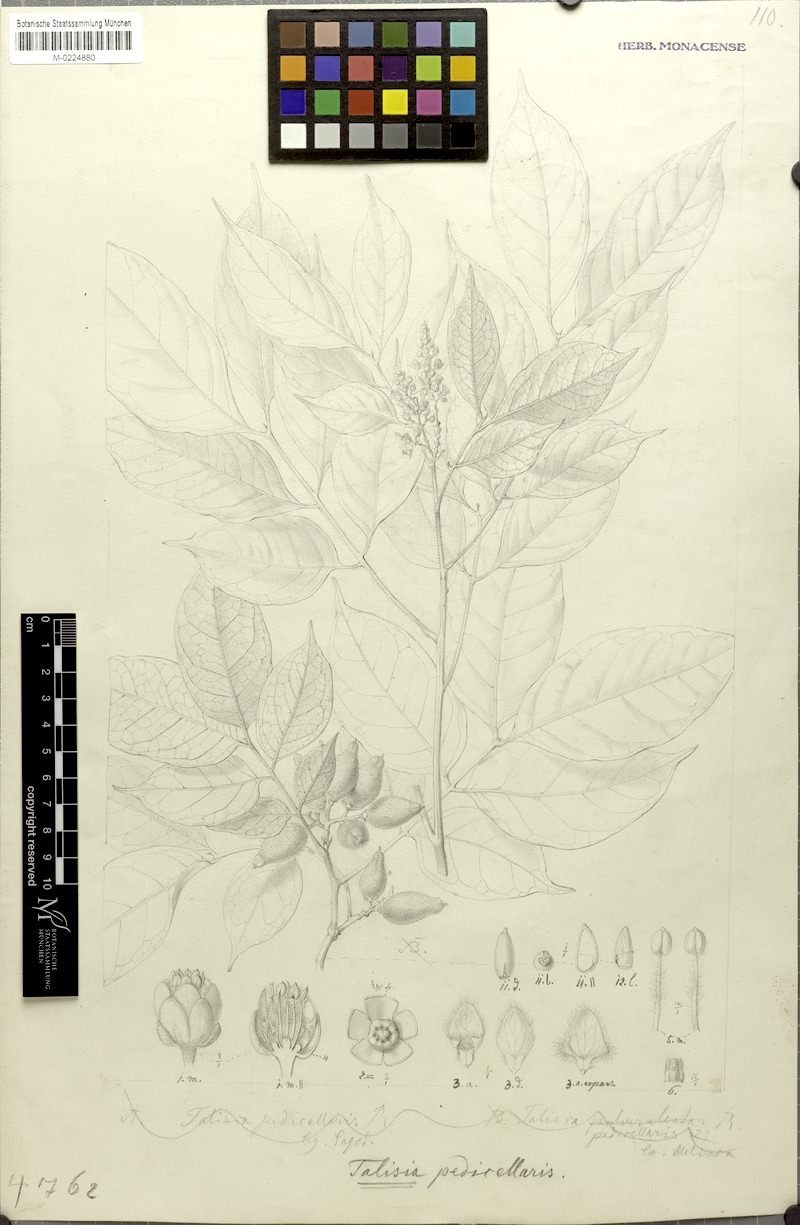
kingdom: Plantae
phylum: Tracheophyta
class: Magnoliopsida
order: Sapindales
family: Sapindaceae
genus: Melicoccus
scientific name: Melicoccus pedicellaris
